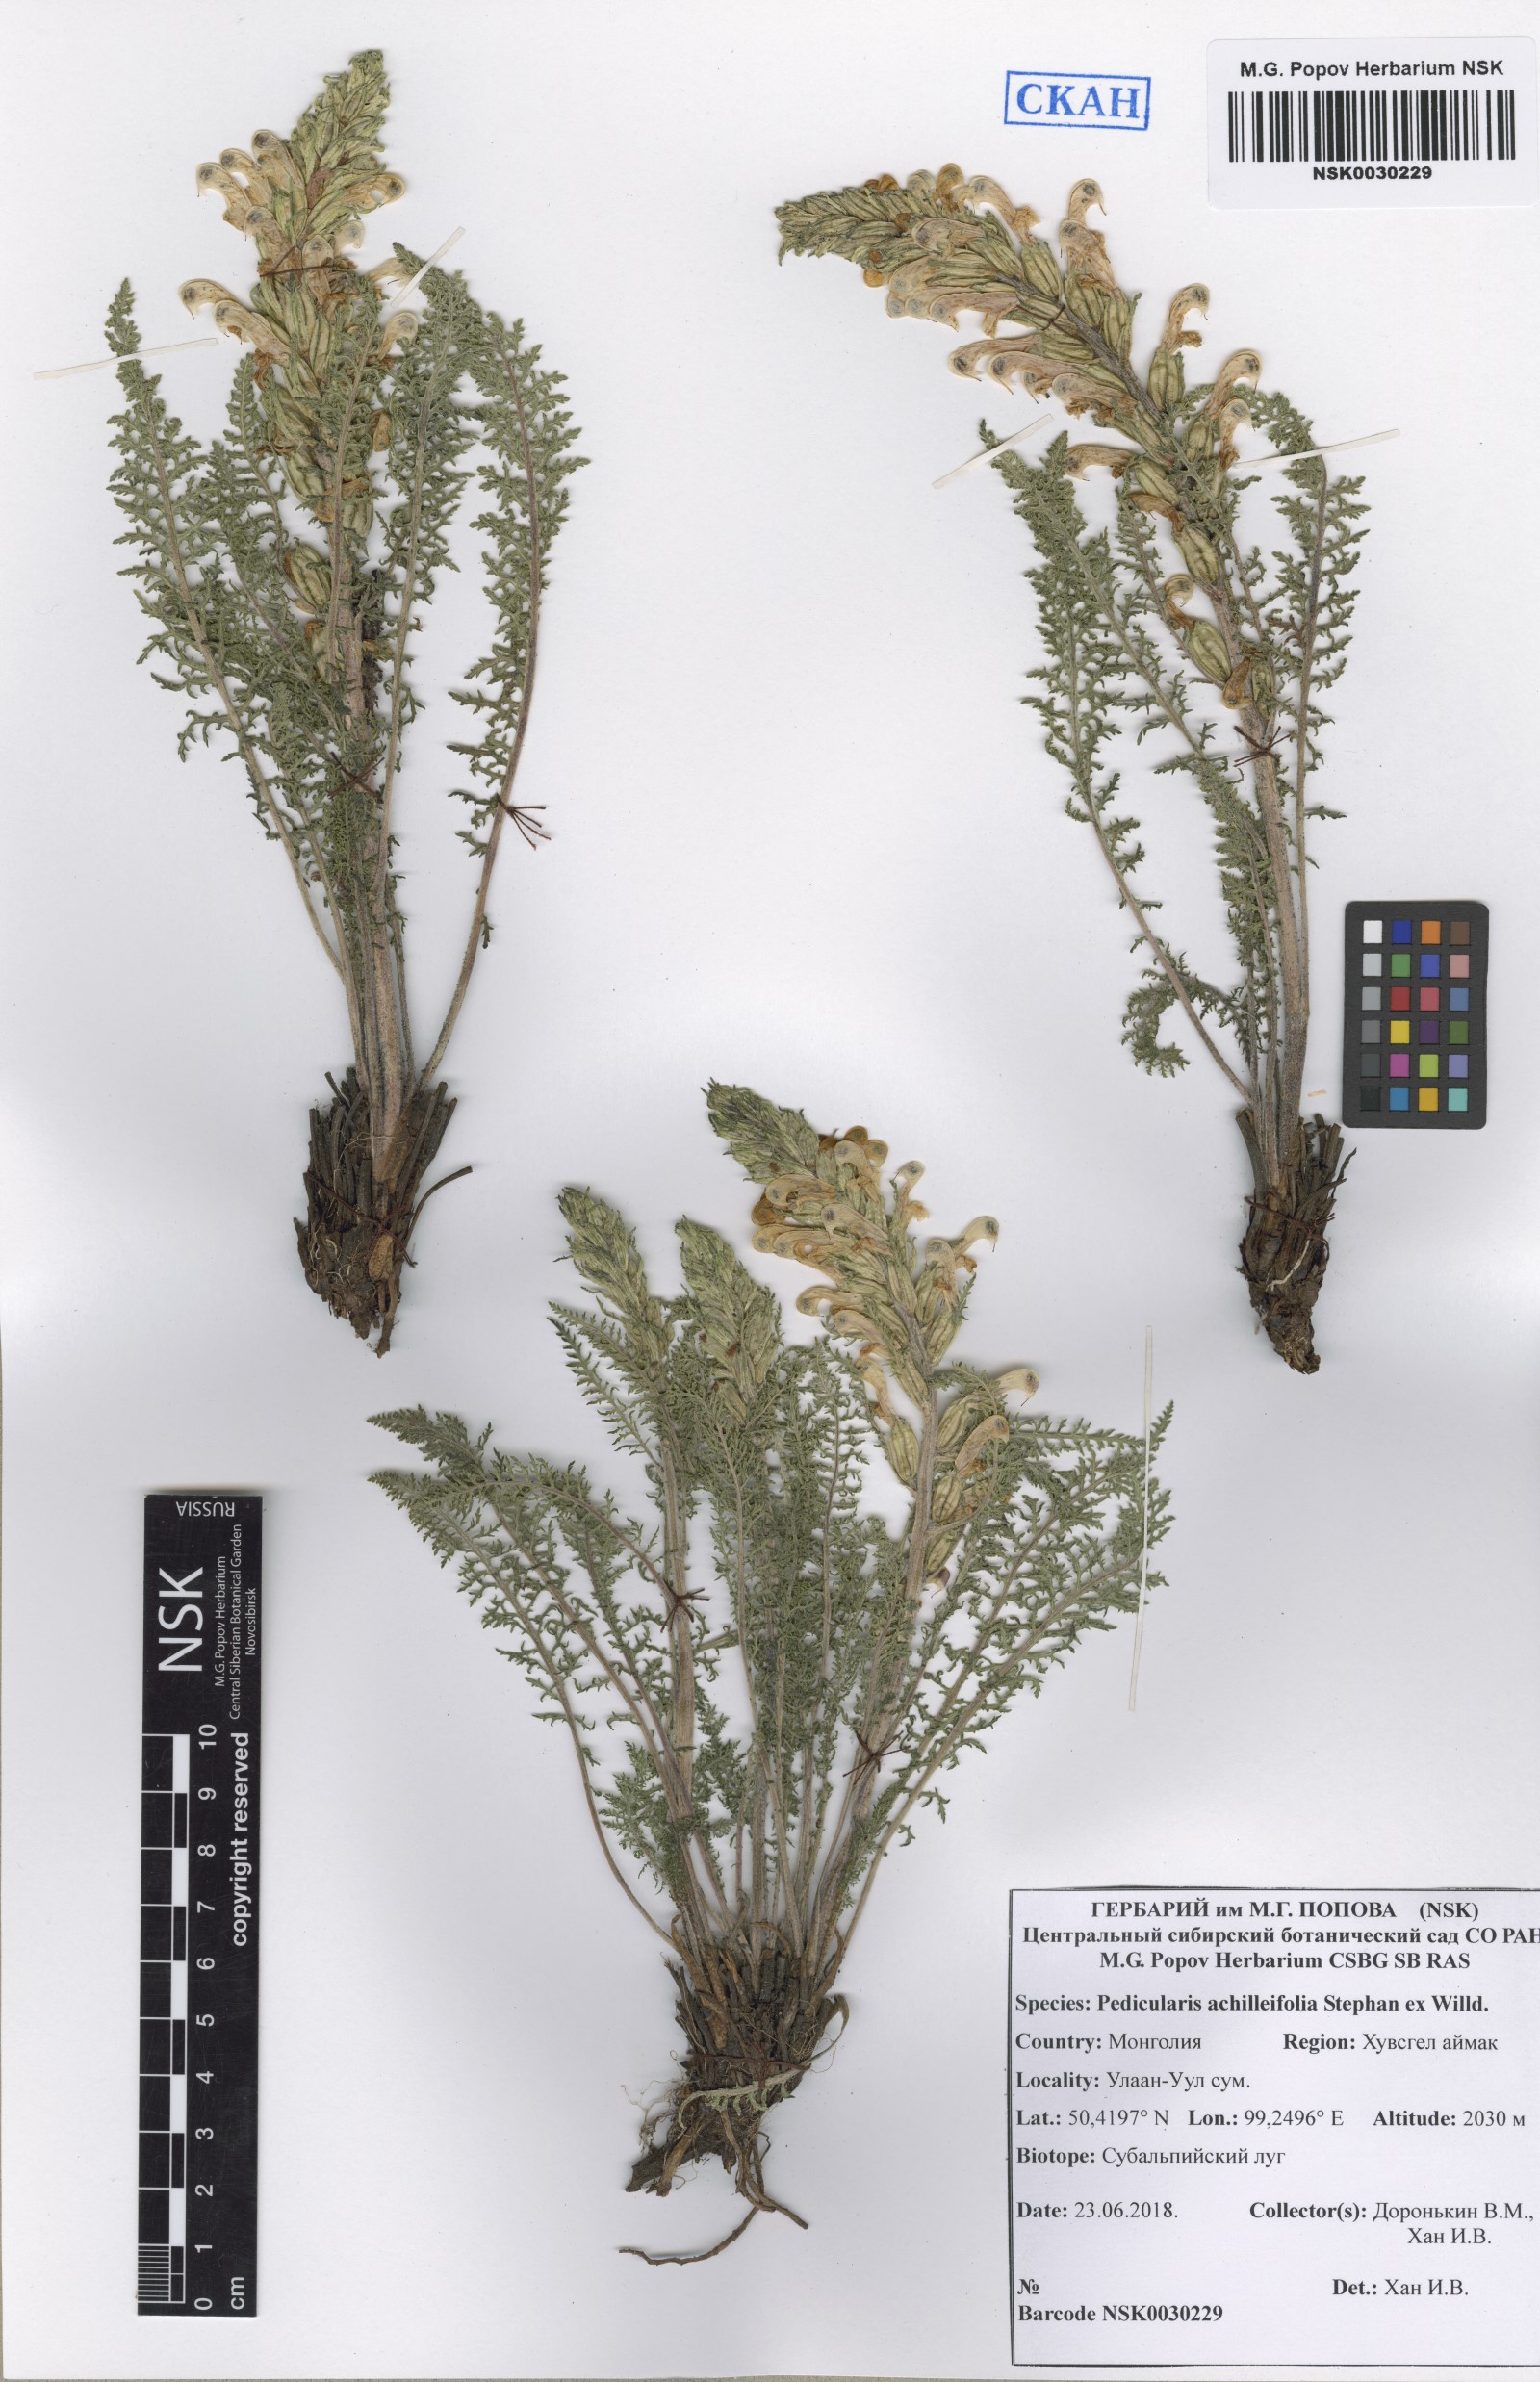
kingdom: Plantae
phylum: Tracheophyta
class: Magnoliopsida
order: Lamiales
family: Orobanchaceae
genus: Pedicularis
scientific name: Pedicularis achilleifolia
